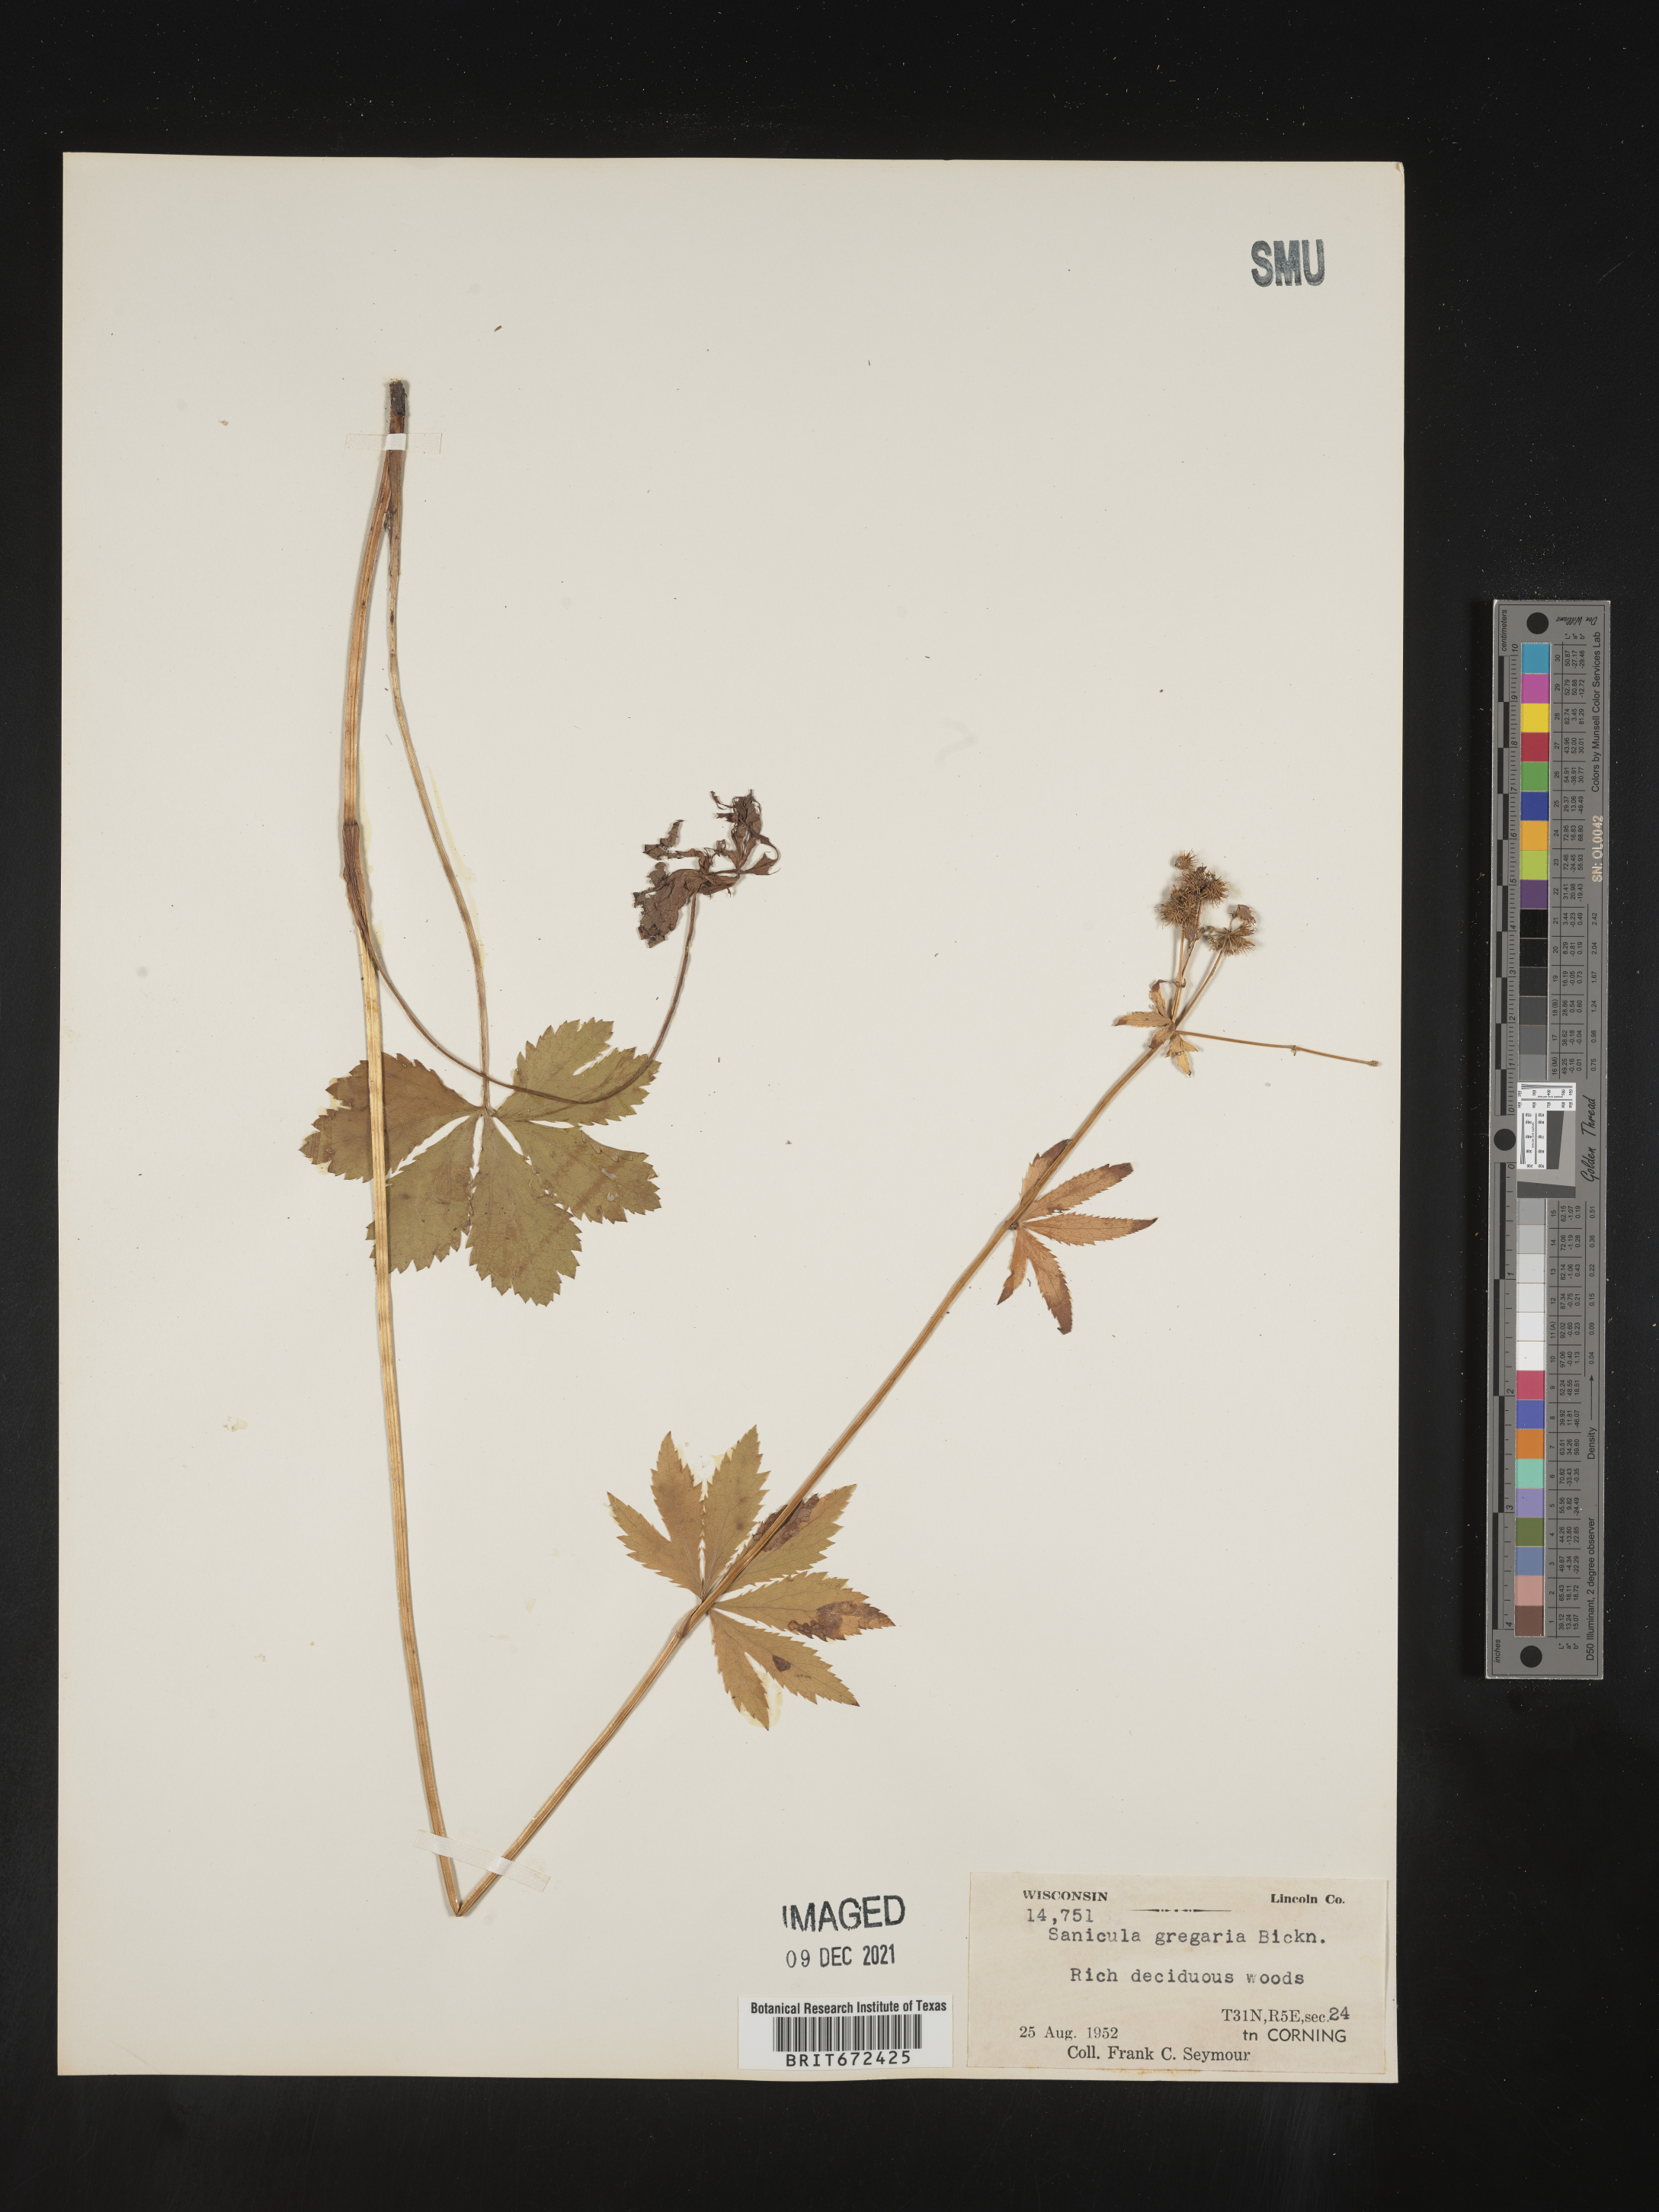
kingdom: Plantae
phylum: Tracheophyta
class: Magnoliopsida
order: Apiales
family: Apiaceae
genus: Sanicula
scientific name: Sanicula odorata
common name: Cluster sanicle
